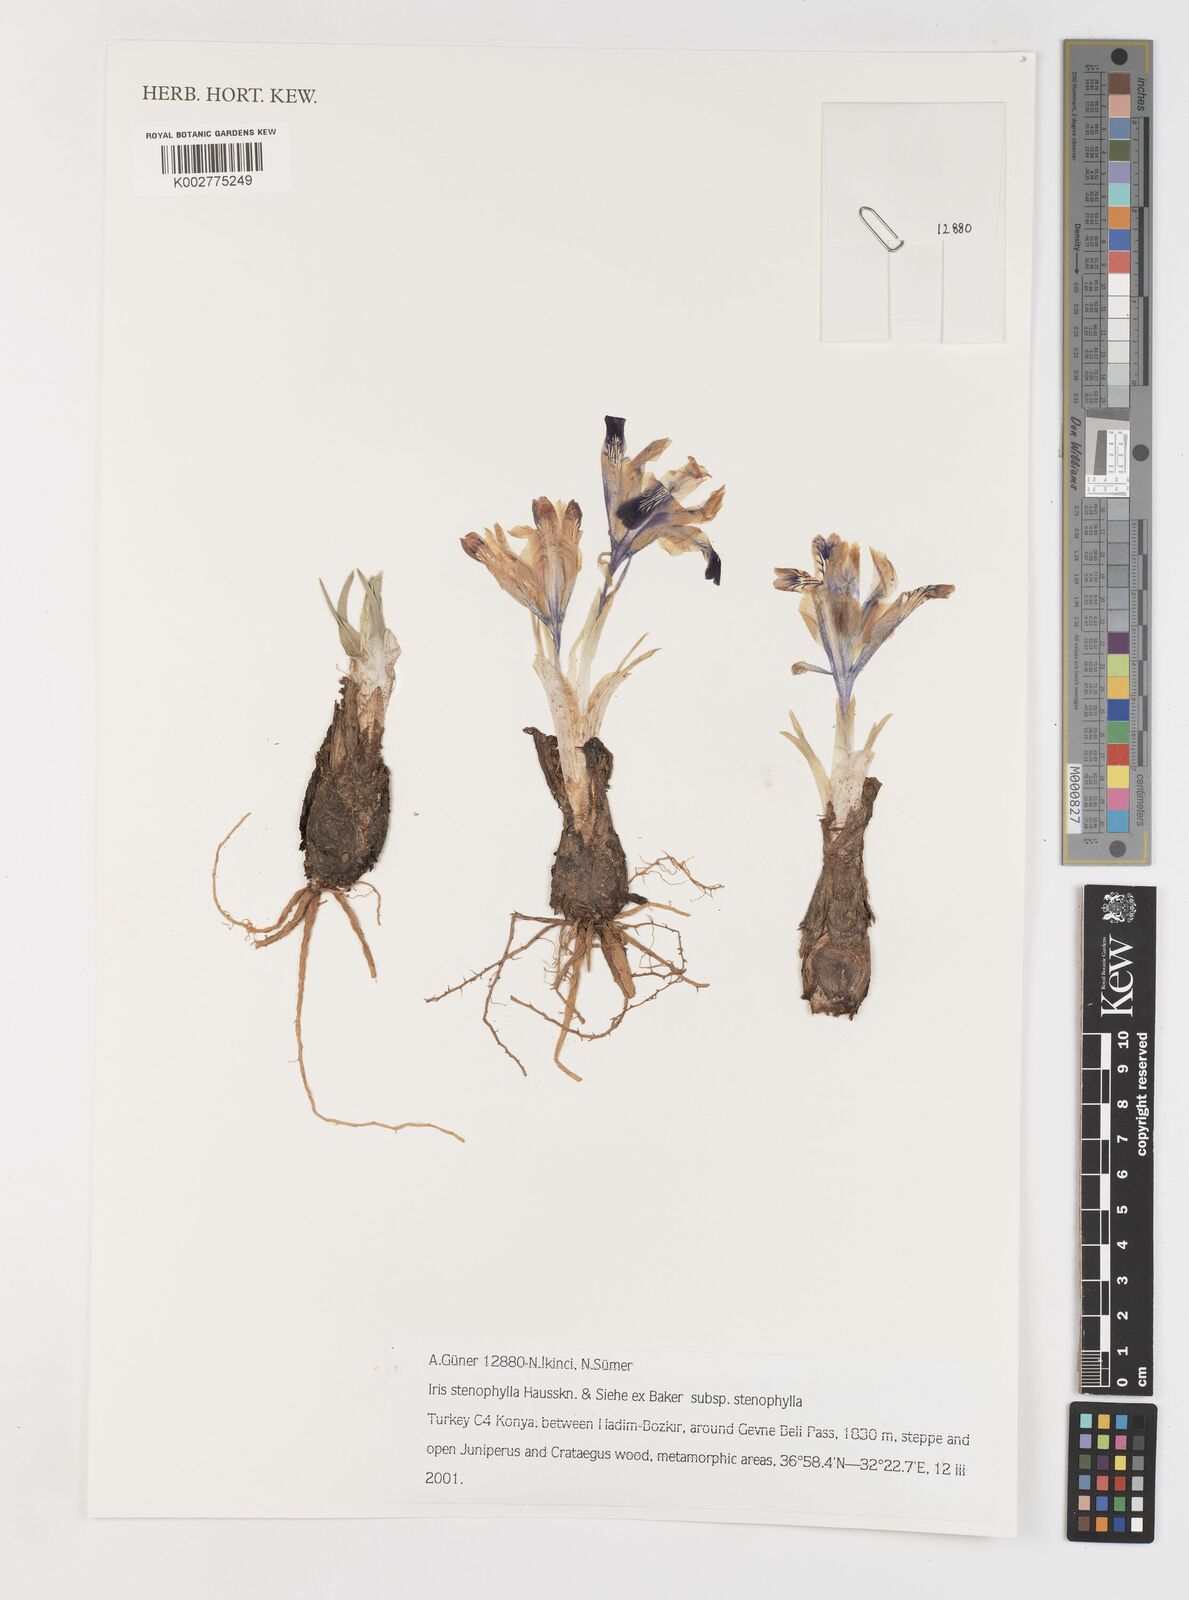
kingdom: Plantae
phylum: Tracheophyta
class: Liliopsida
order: Asparagales
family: Iridaceae
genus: Iris
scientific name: Iris stenophylla
